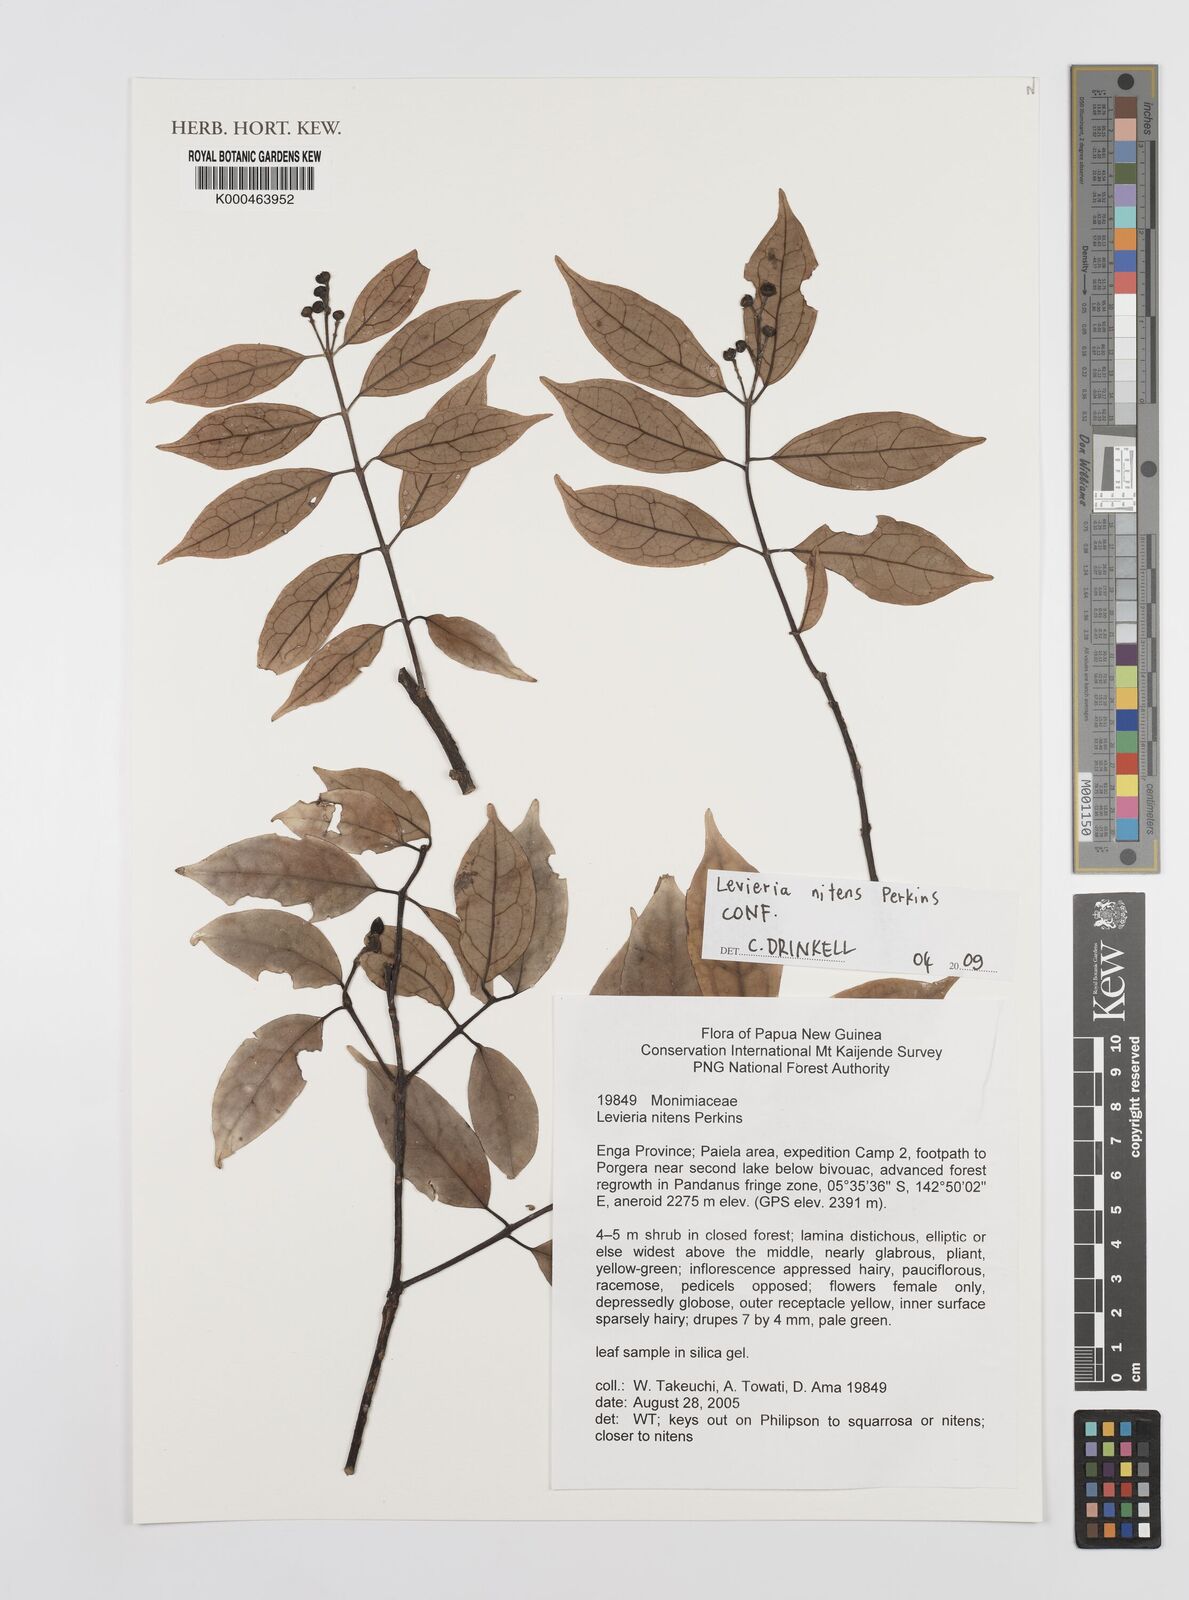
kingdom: Plantae
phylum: Tracheophyta
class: Magnoliopsida
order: Laurales
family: Monimiaceae
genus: Levieria
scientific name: Levieria nitens
